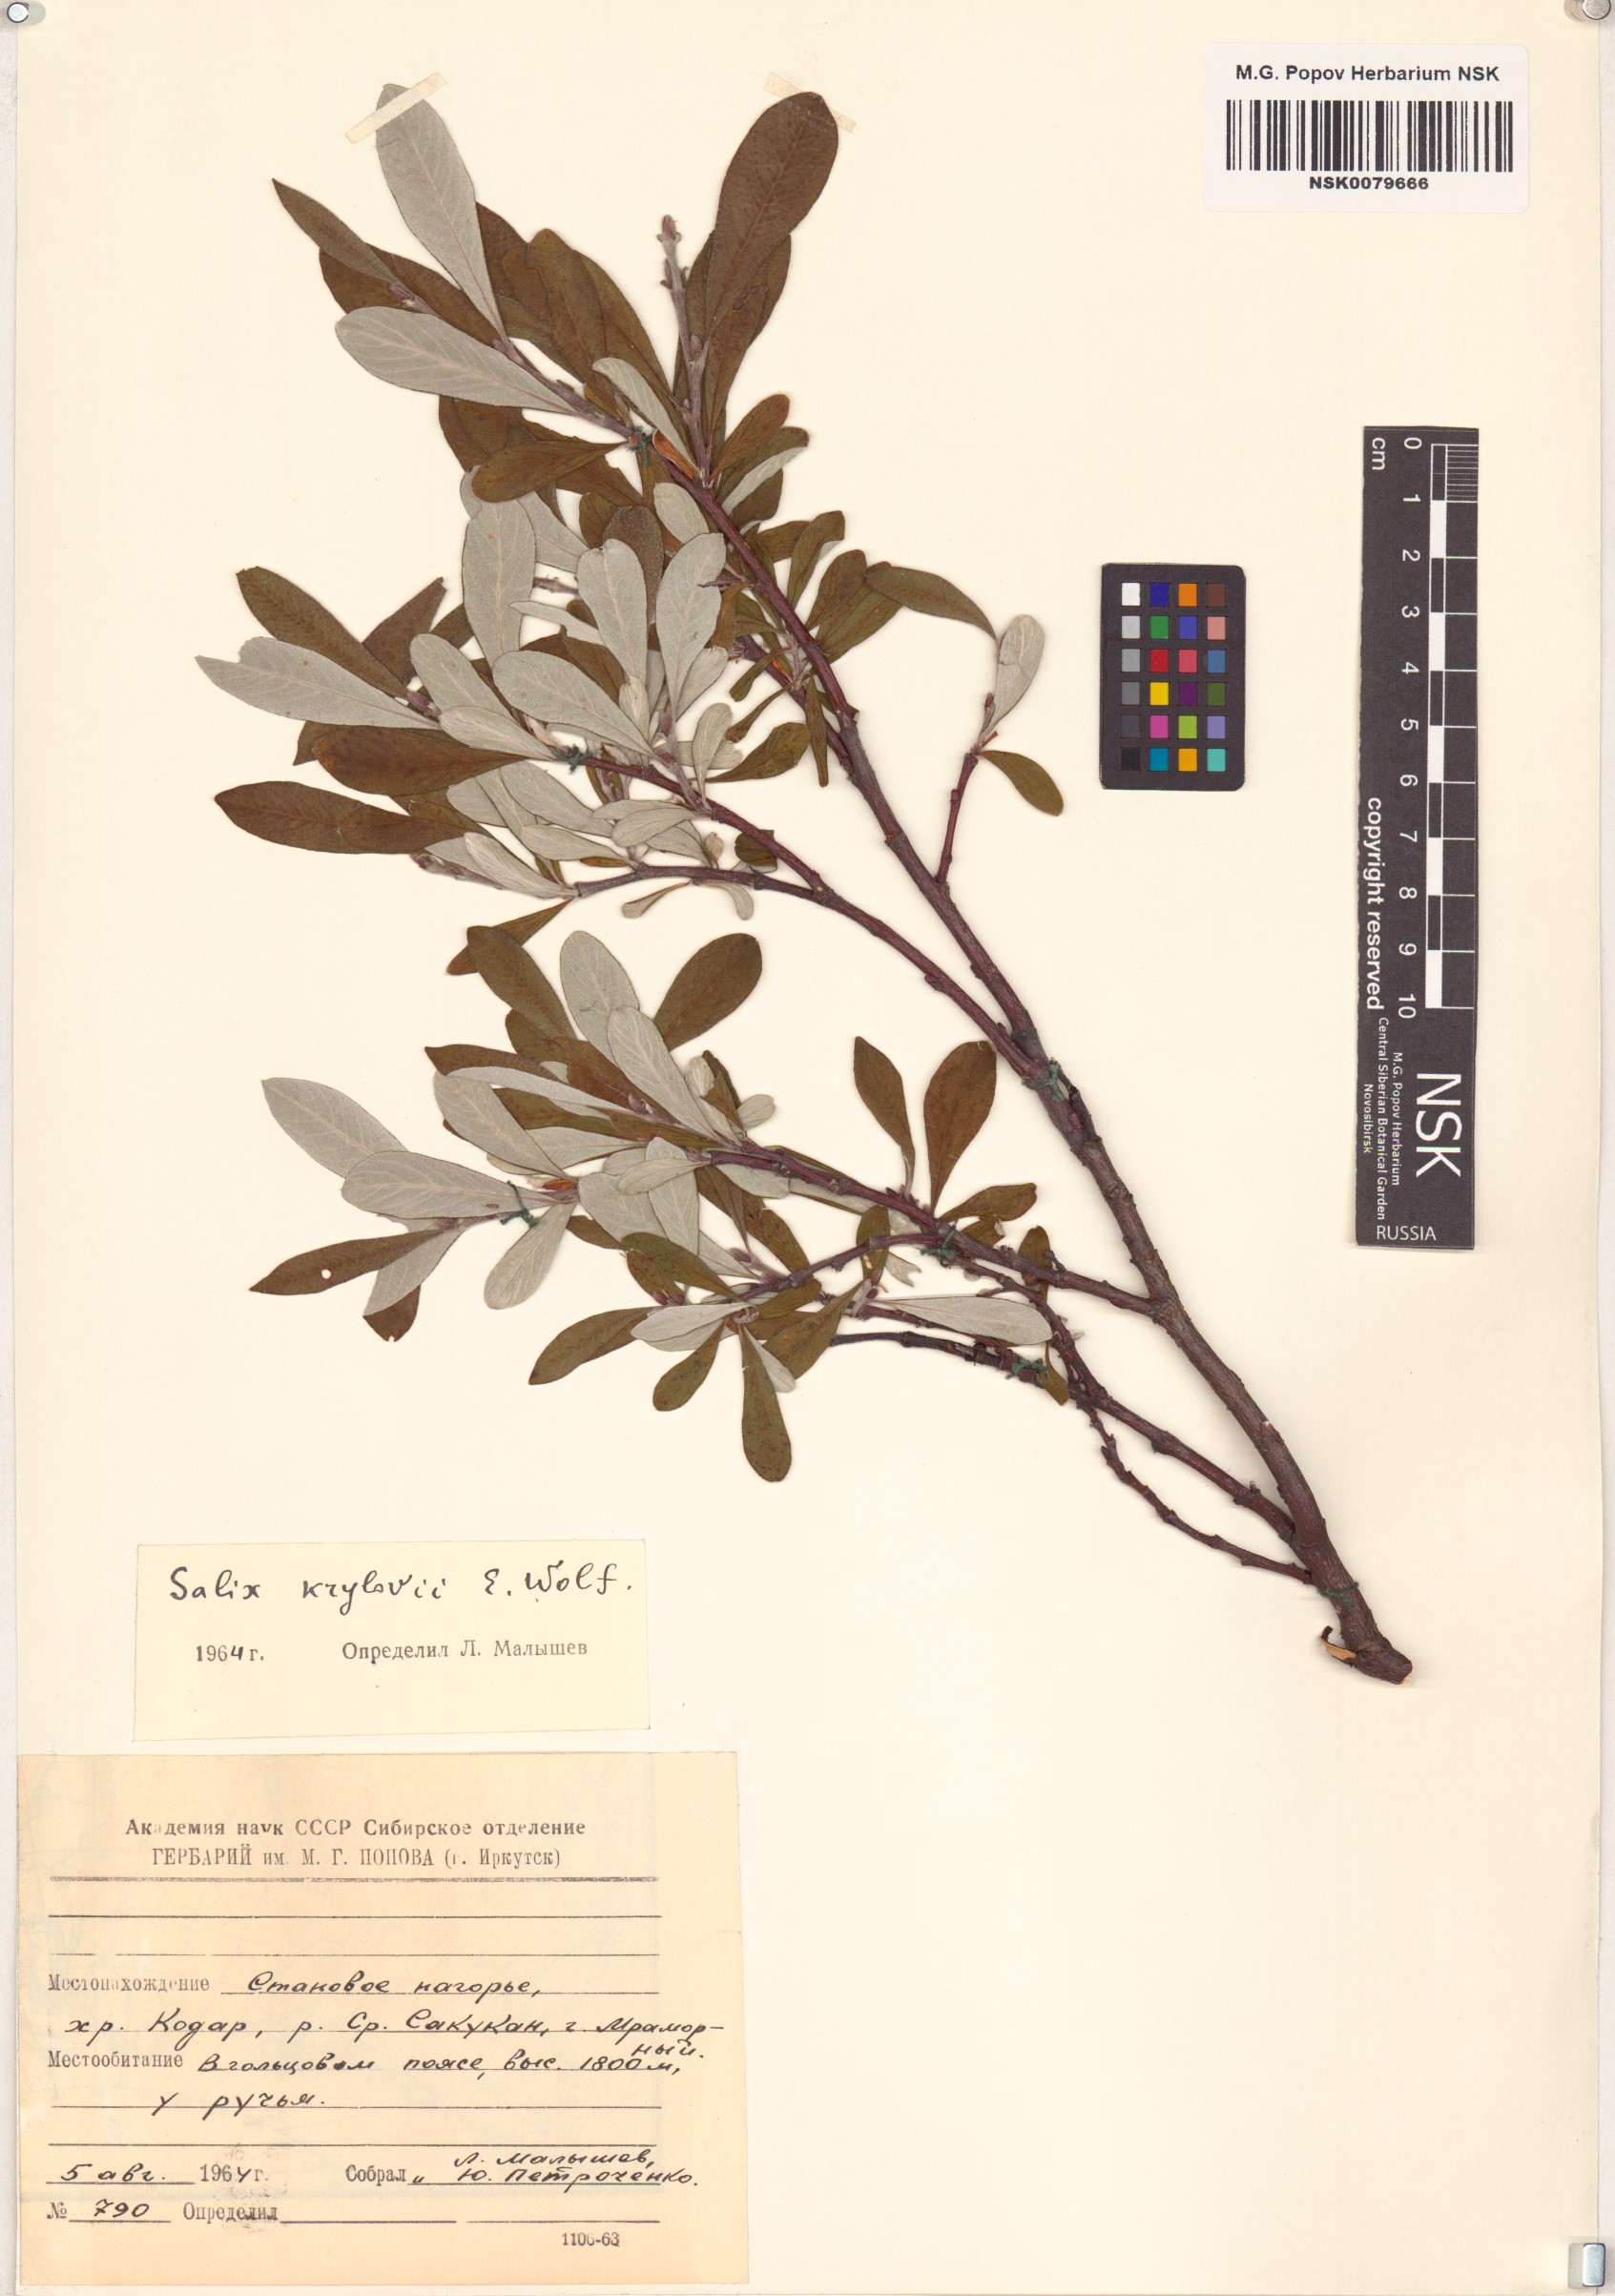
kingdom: Plantae
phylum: Tracheophyta
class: Magnoliopsida
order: Malpighiales
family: Salicaceae
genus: Salix
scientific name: Salix krylovii
